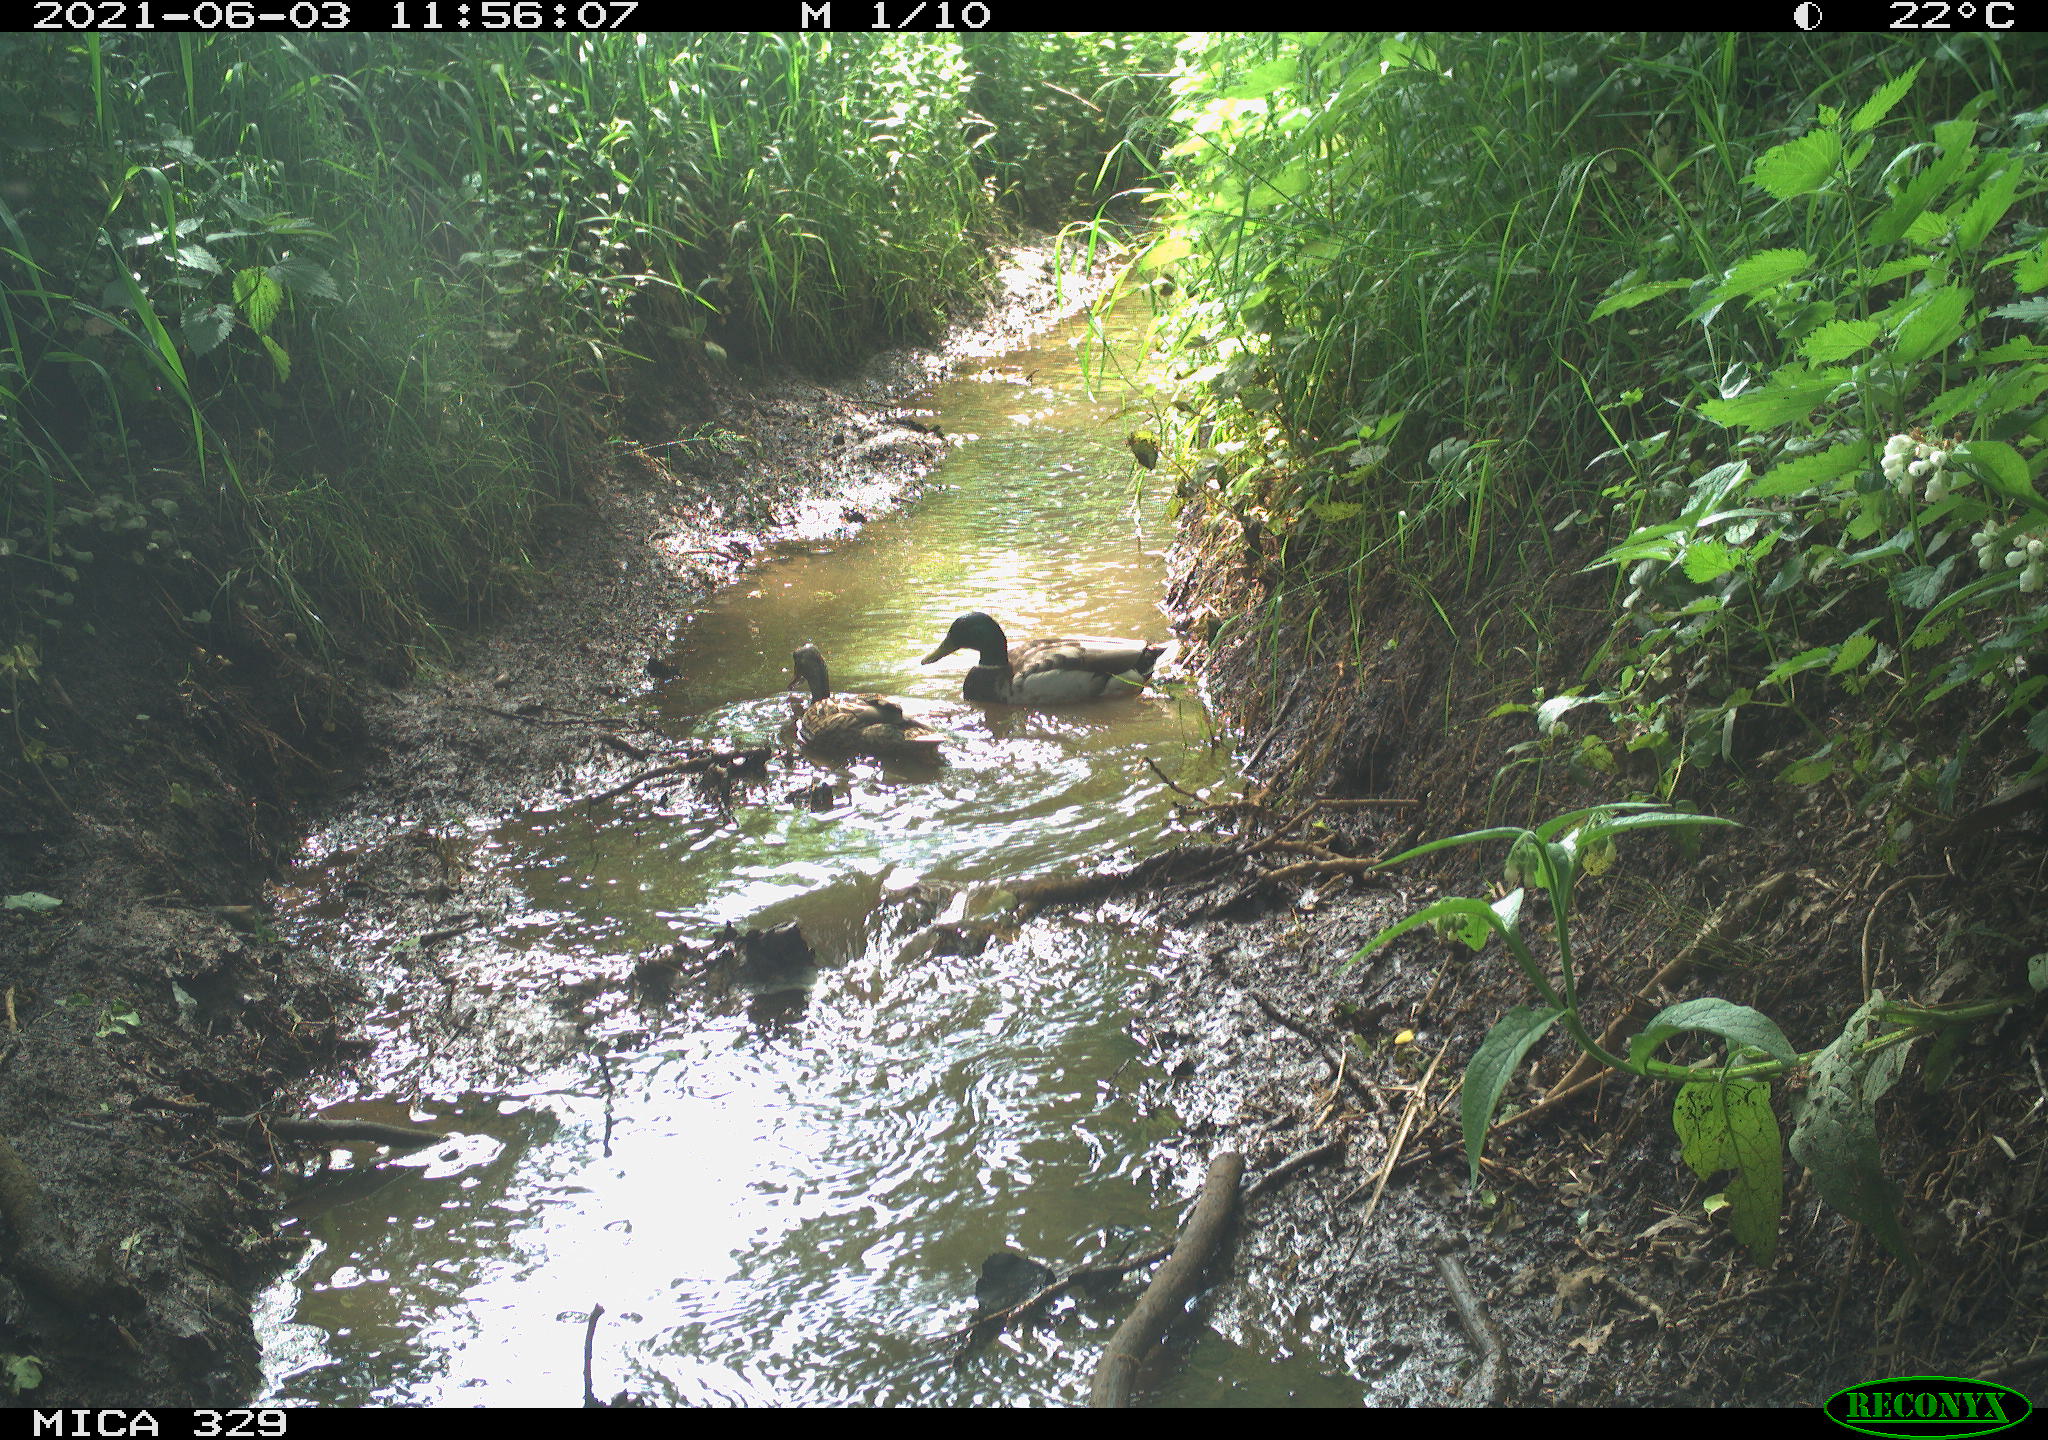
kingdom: Animalia
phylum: Chordata
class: Aves
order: Anseriformes
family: Anatidae
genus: Anas
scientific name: Anas platyrhynchos
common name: Mallard
